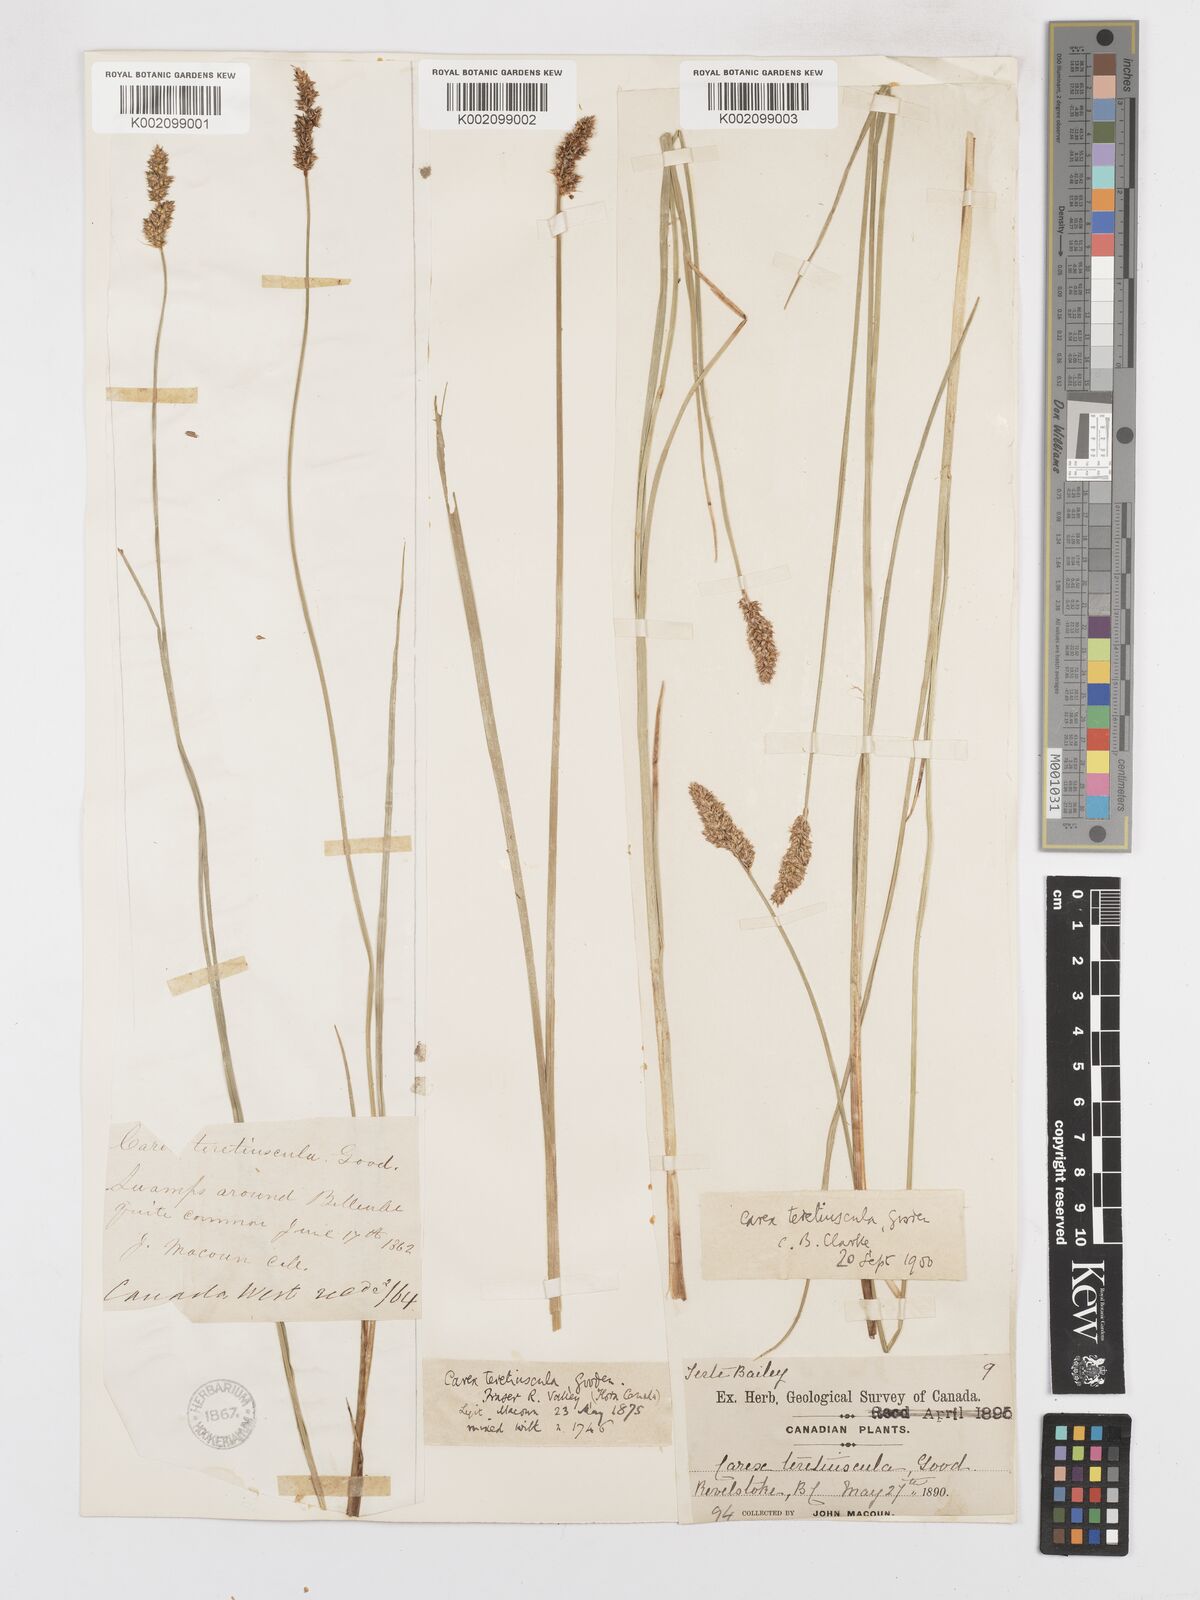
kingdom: Plantae
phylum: Tracheophyta
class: Liliopsida
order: Poales
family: Cyperaceae
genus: Carex
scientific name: Carex diandra
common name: Lesser tussock-sedge
